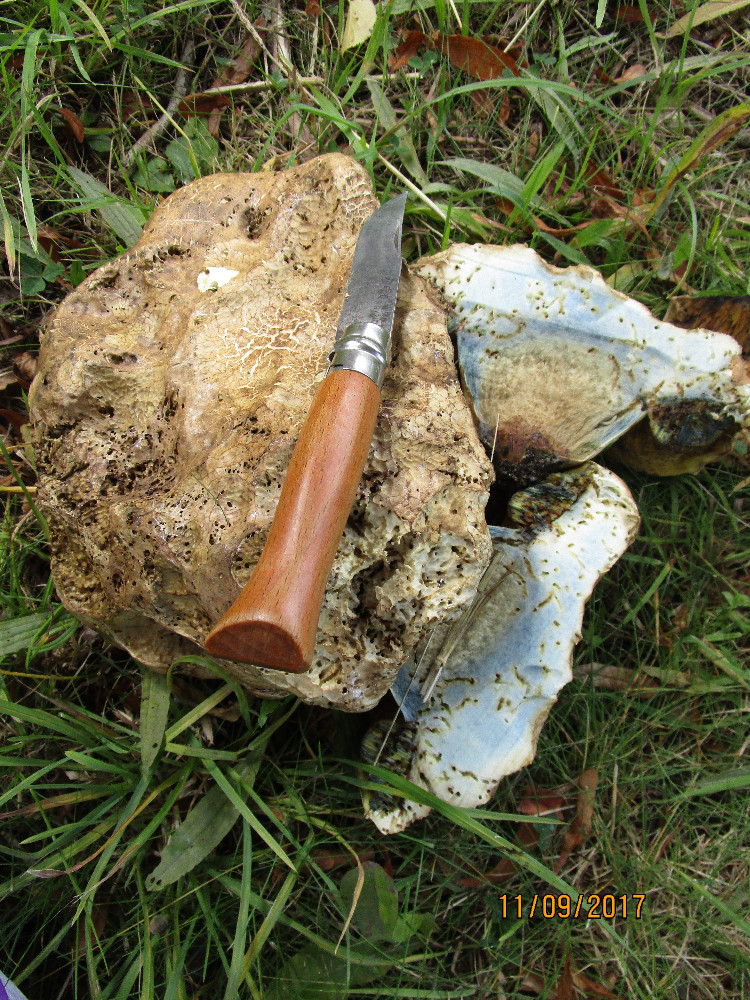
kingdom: Fungi
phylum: Basidiomycota
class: Agaricomycetes
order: Boletales
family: Boletaceae
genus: Caloboletus
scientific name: Caloboletus radicans
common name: rod-rørhat
